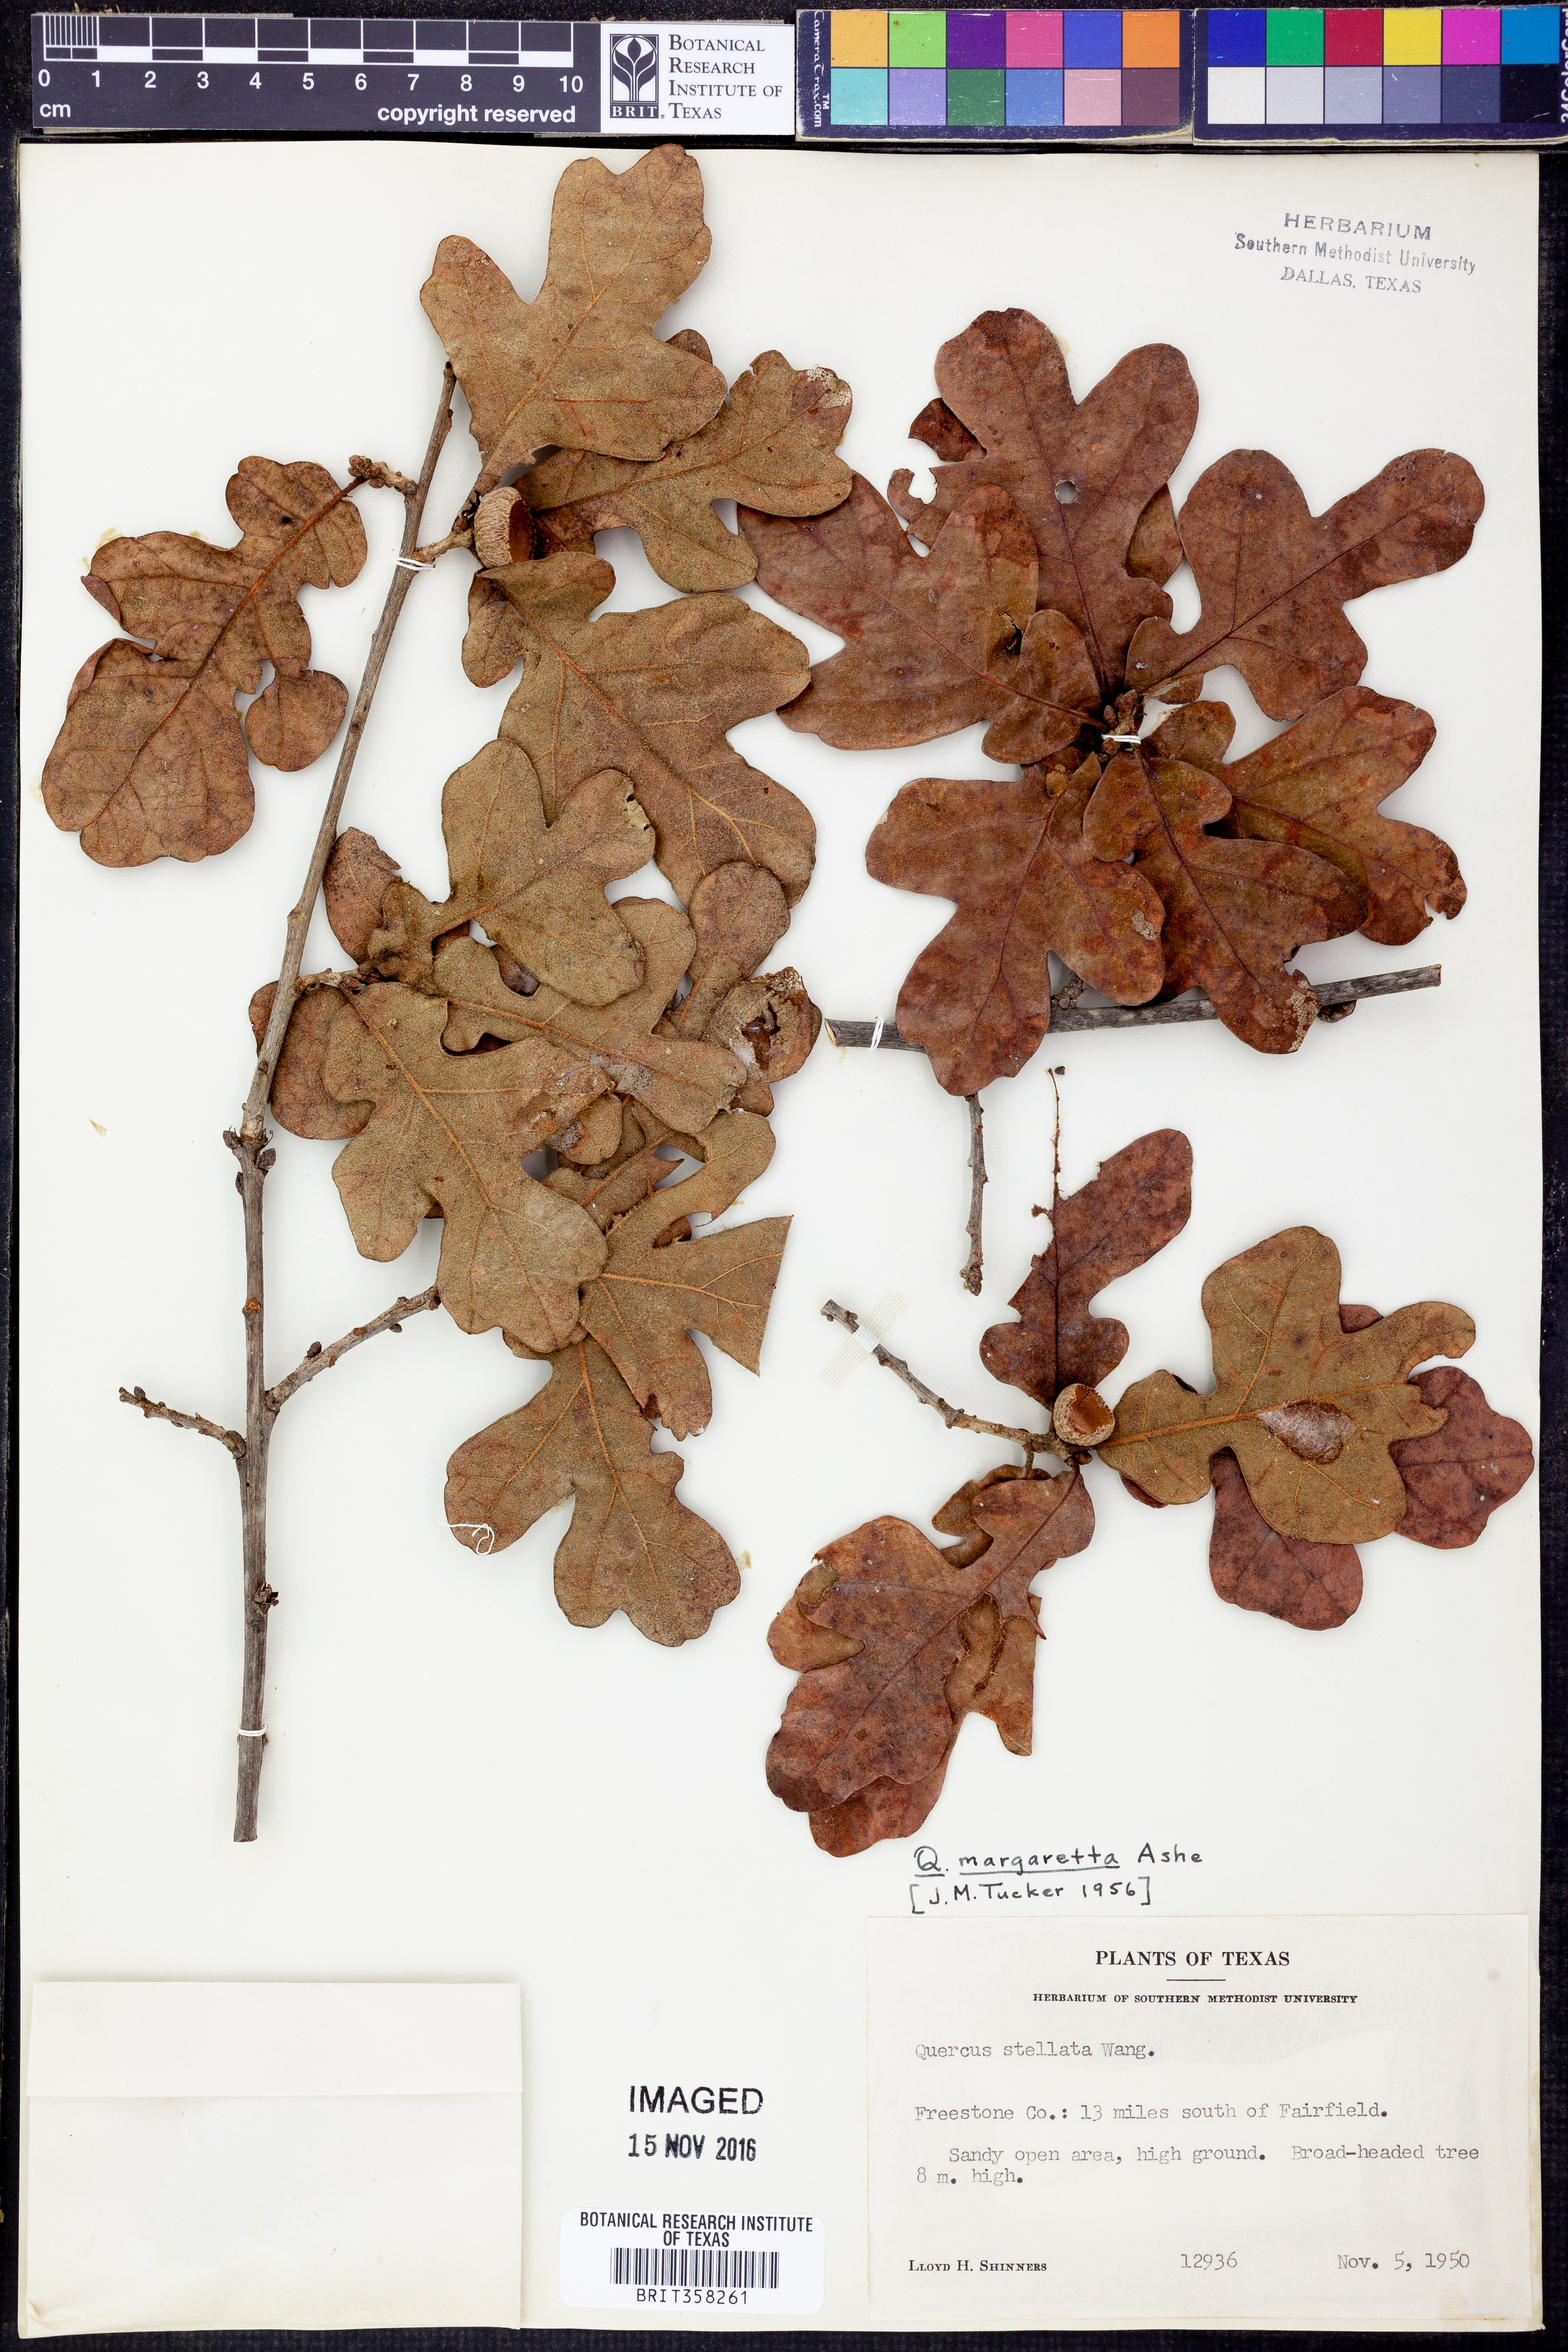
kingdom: Plantae
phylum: Tracheophyta
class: Magnoliopsida
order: Fagales
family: Fagaceae
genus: Quercus
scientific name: Quercus margaretta
